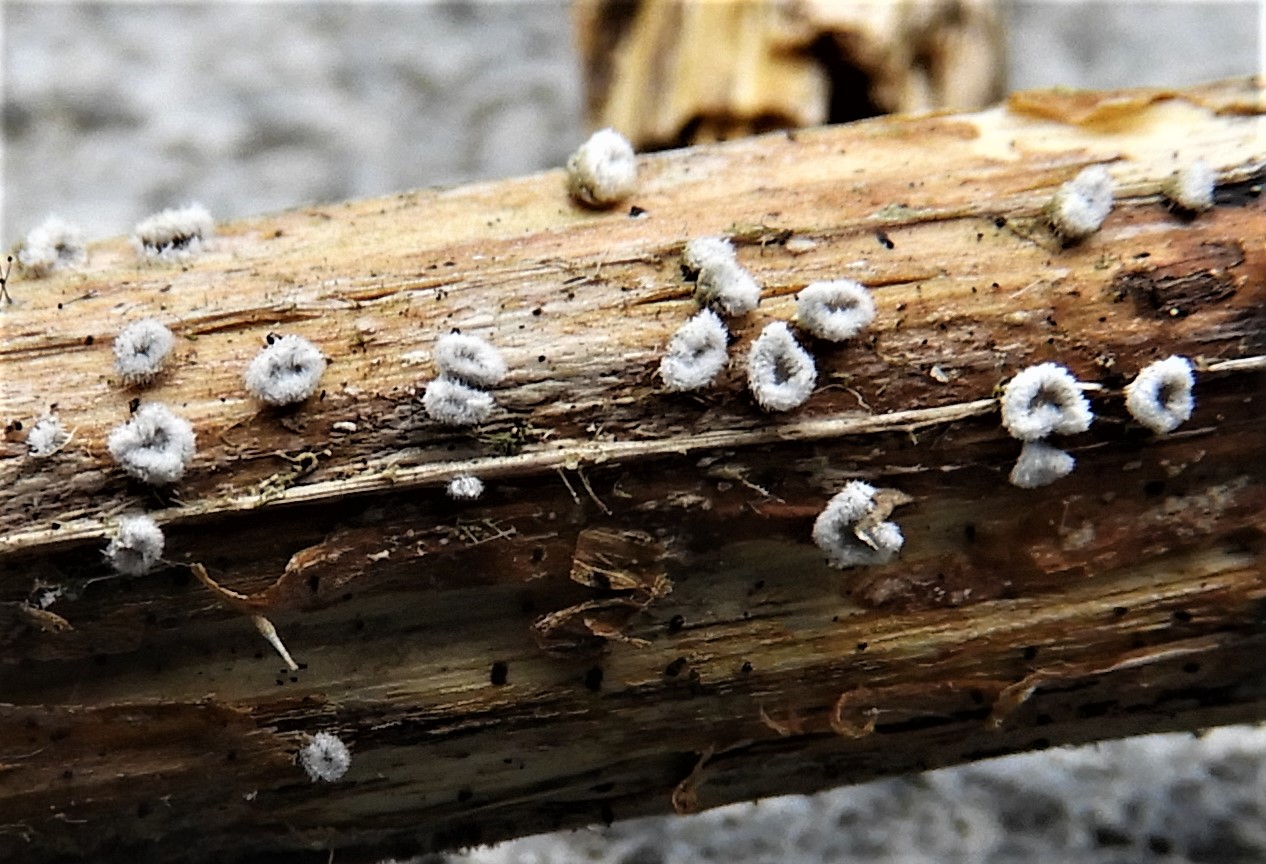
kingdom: Fungi
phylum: Basidiomycota
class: Agaricomycetes
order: Agaricales
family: Niaceae
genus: Lachnella
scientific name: Lachnella alboviolascens
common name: grå frynserede
